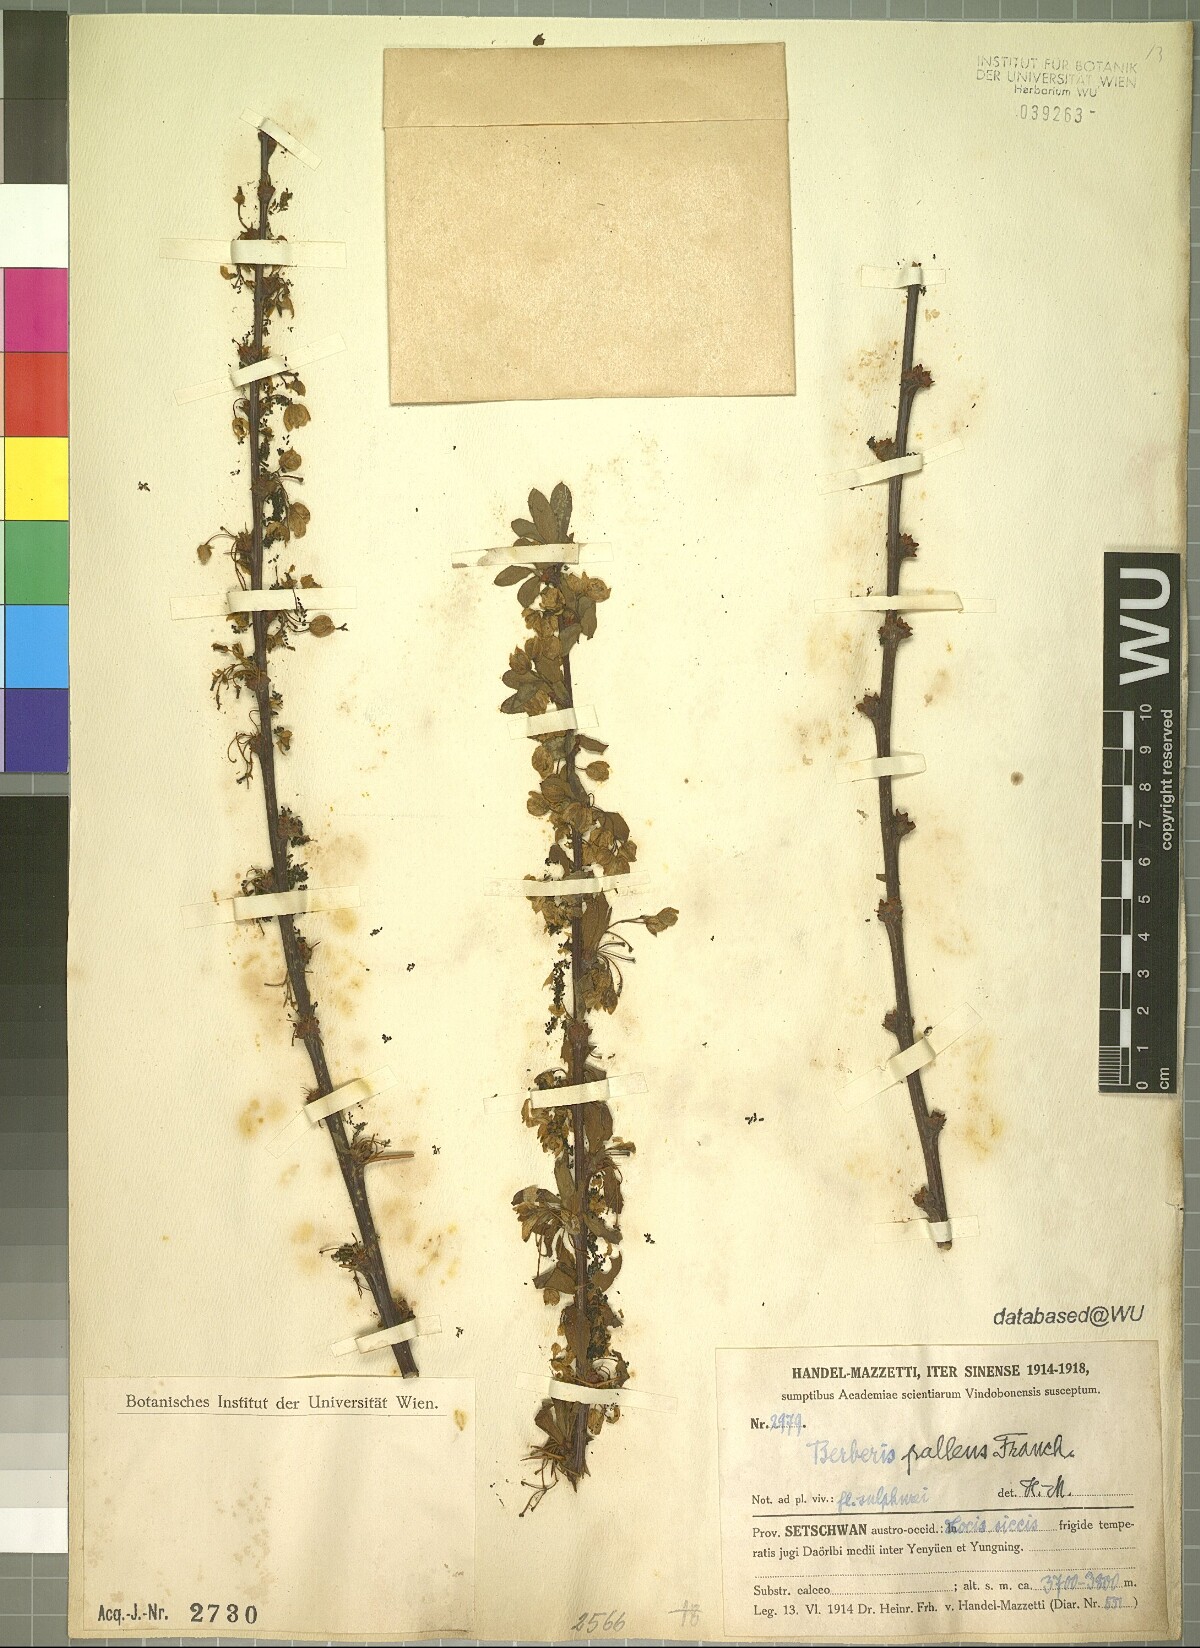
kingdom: Plantae
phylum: Tracheophyta
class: Magnoliopsida
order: Ranunculales
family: Berberidaceae
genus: Berberis
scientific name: Berberis pallens
